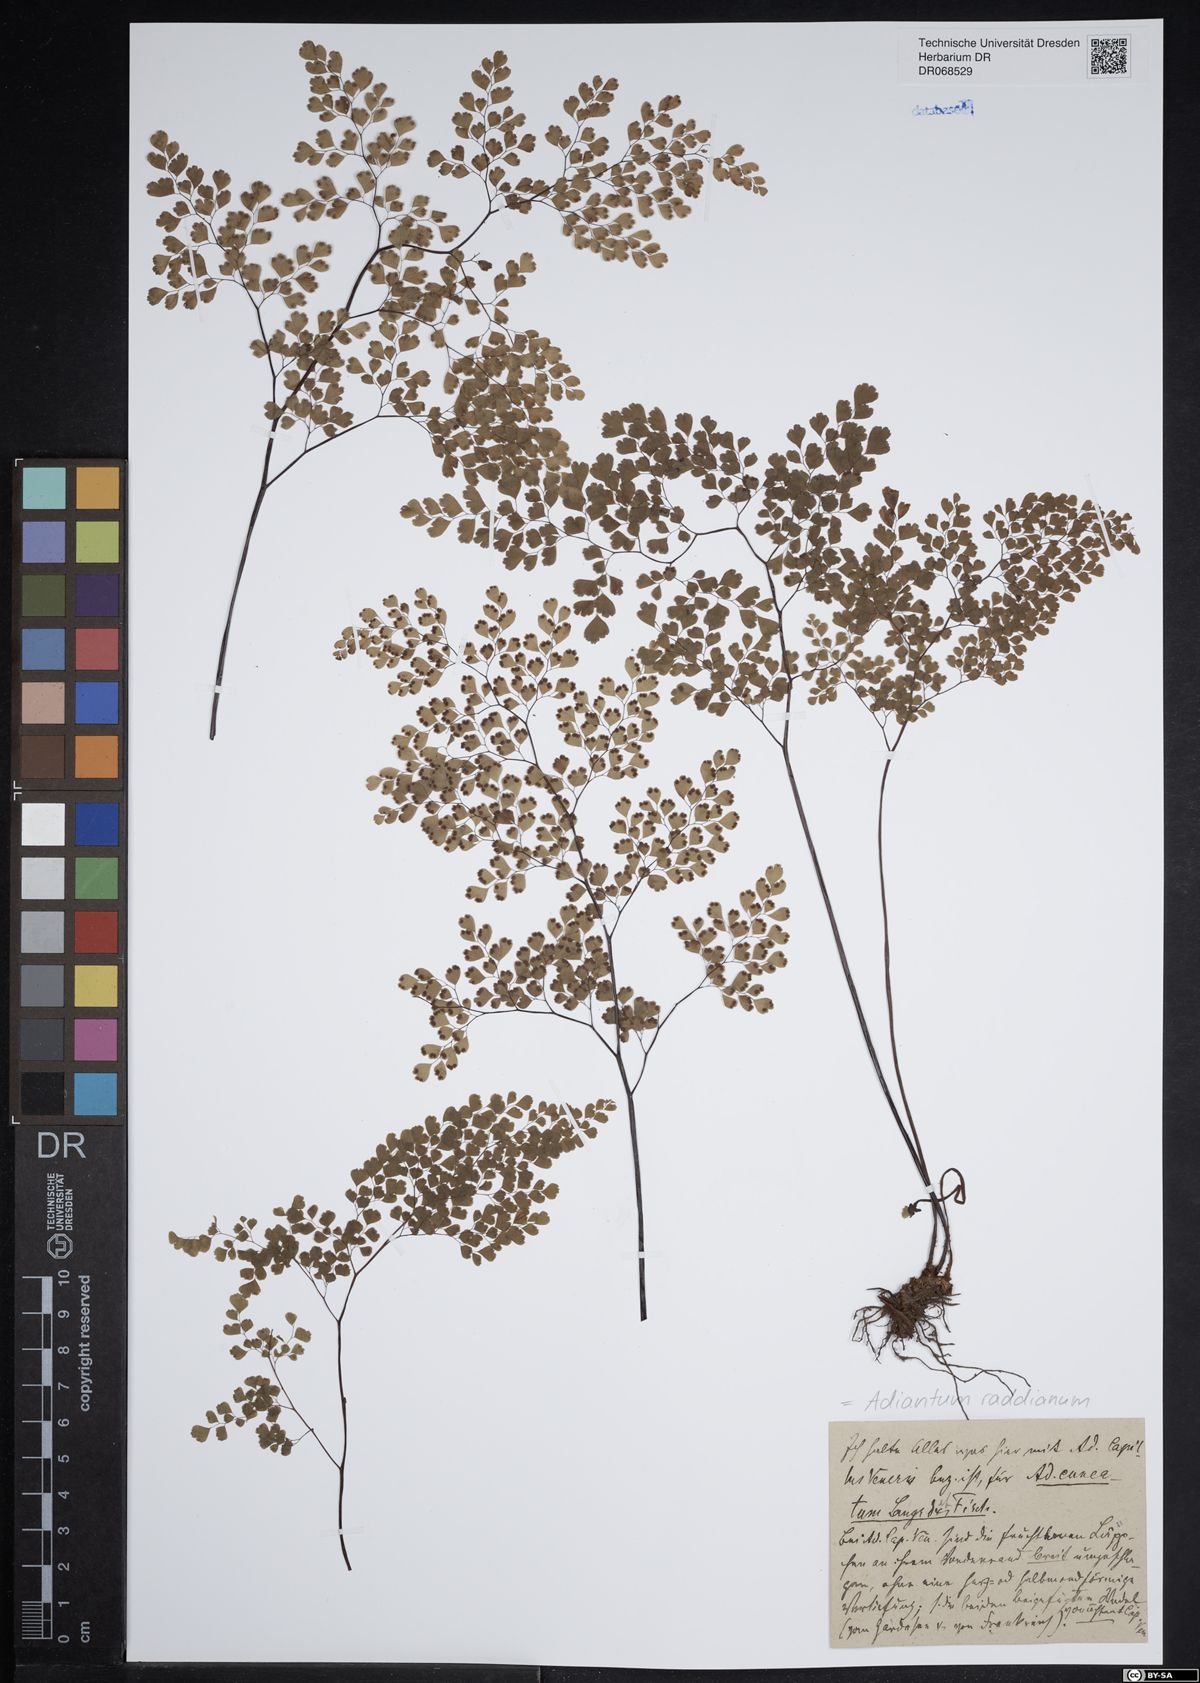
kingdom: Plantae
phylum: Tracheophyta
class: Polypodiopsida
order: Polypodiales
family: Pteridaceae
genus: Adiantum
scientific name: Adiantum raddianum
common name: Delta maidenhair fern
